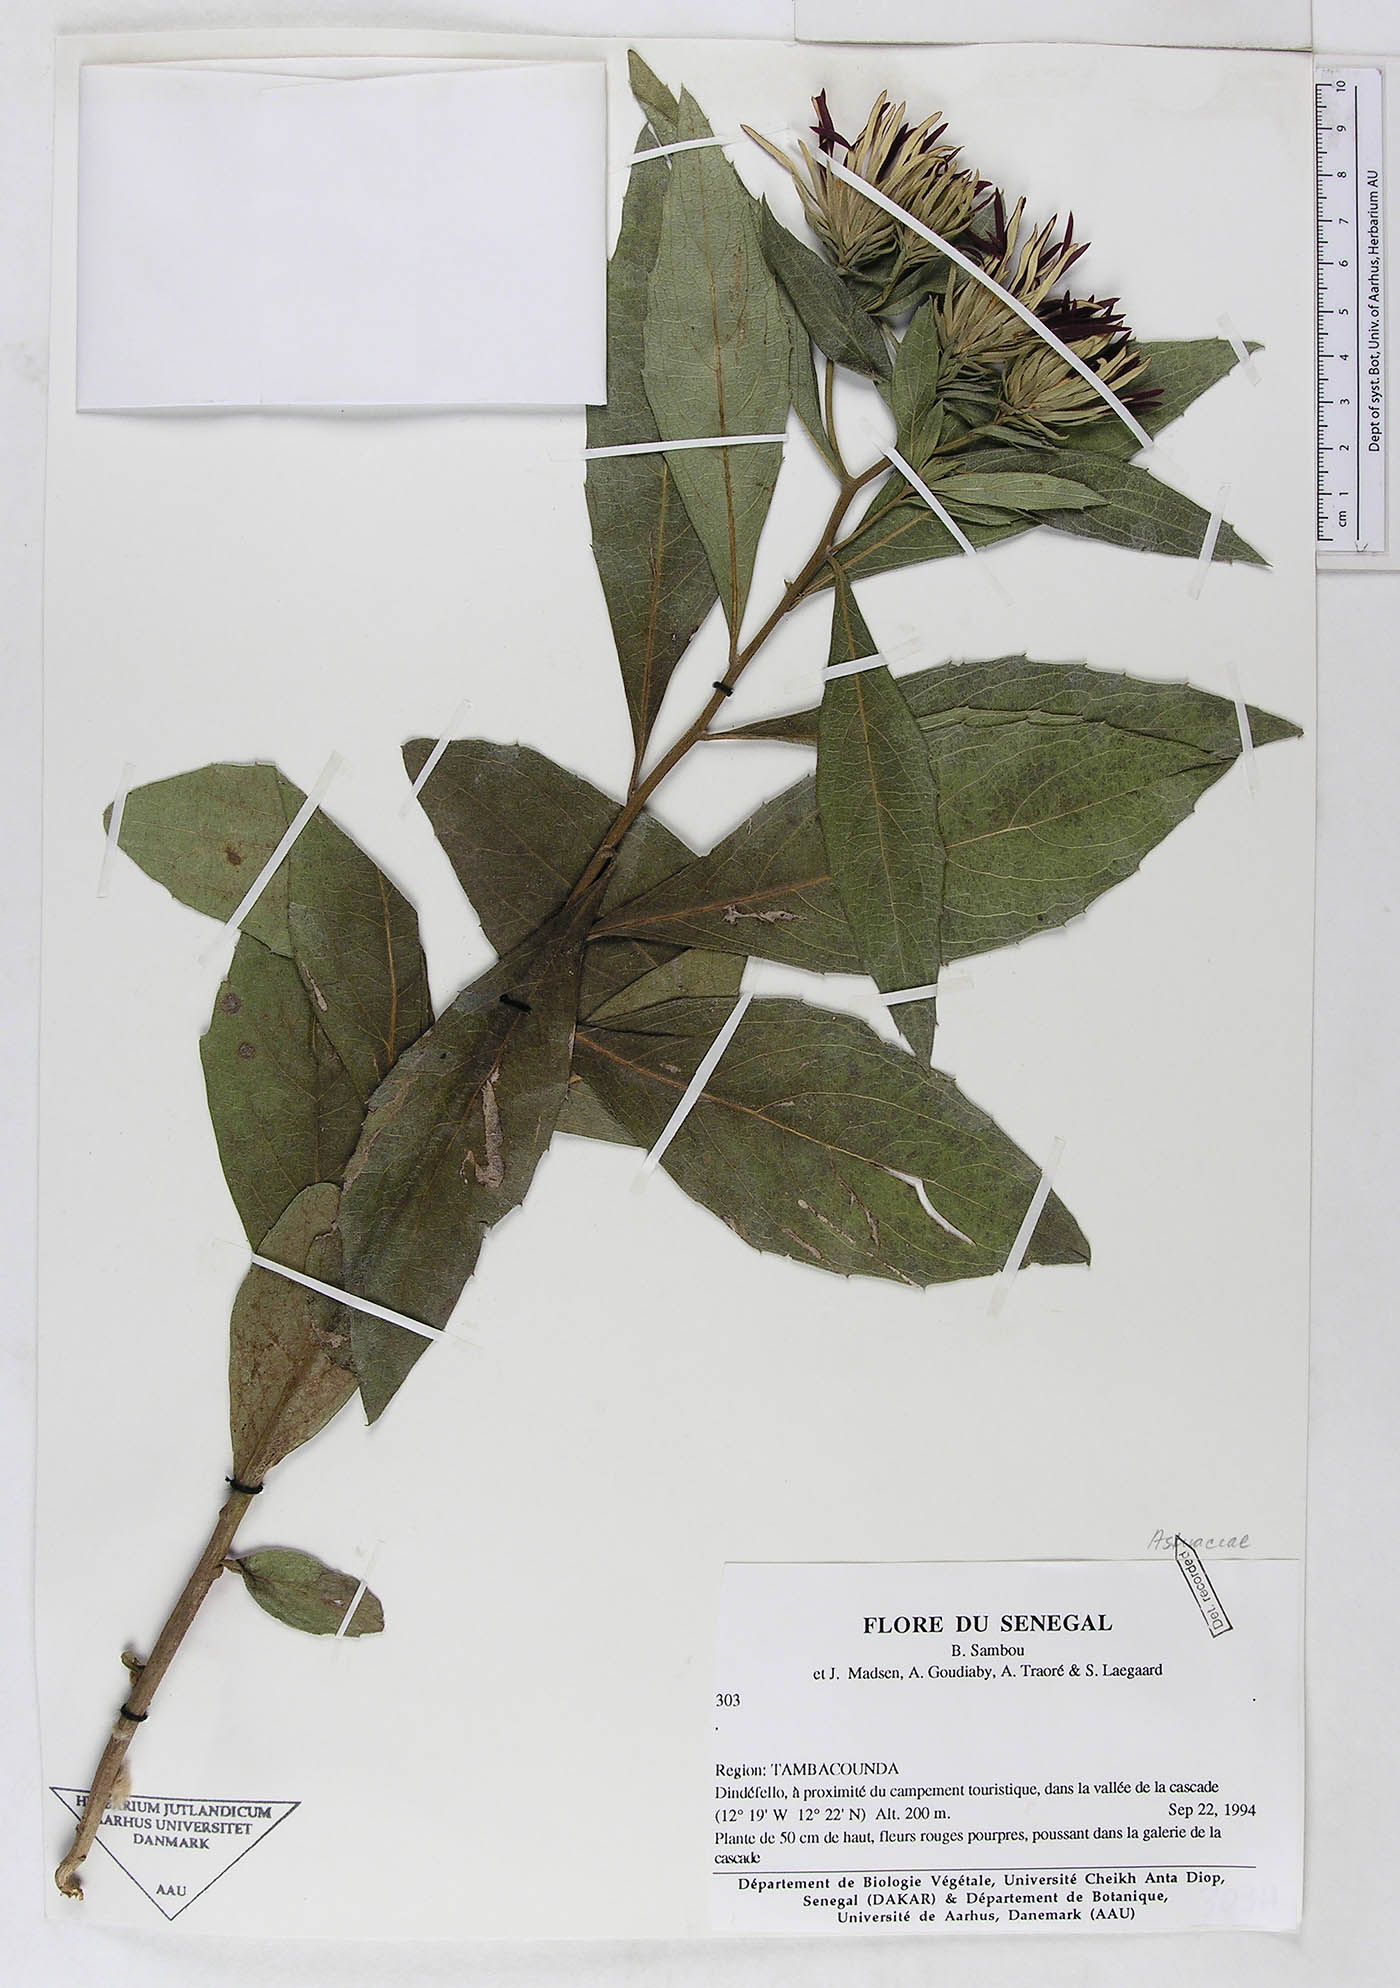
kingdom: Plantae
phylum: Tracheophyta
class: Magnoliopsida
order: Asterales
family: Asteraceae
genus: Linzia
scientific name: Linzia nigritiana
